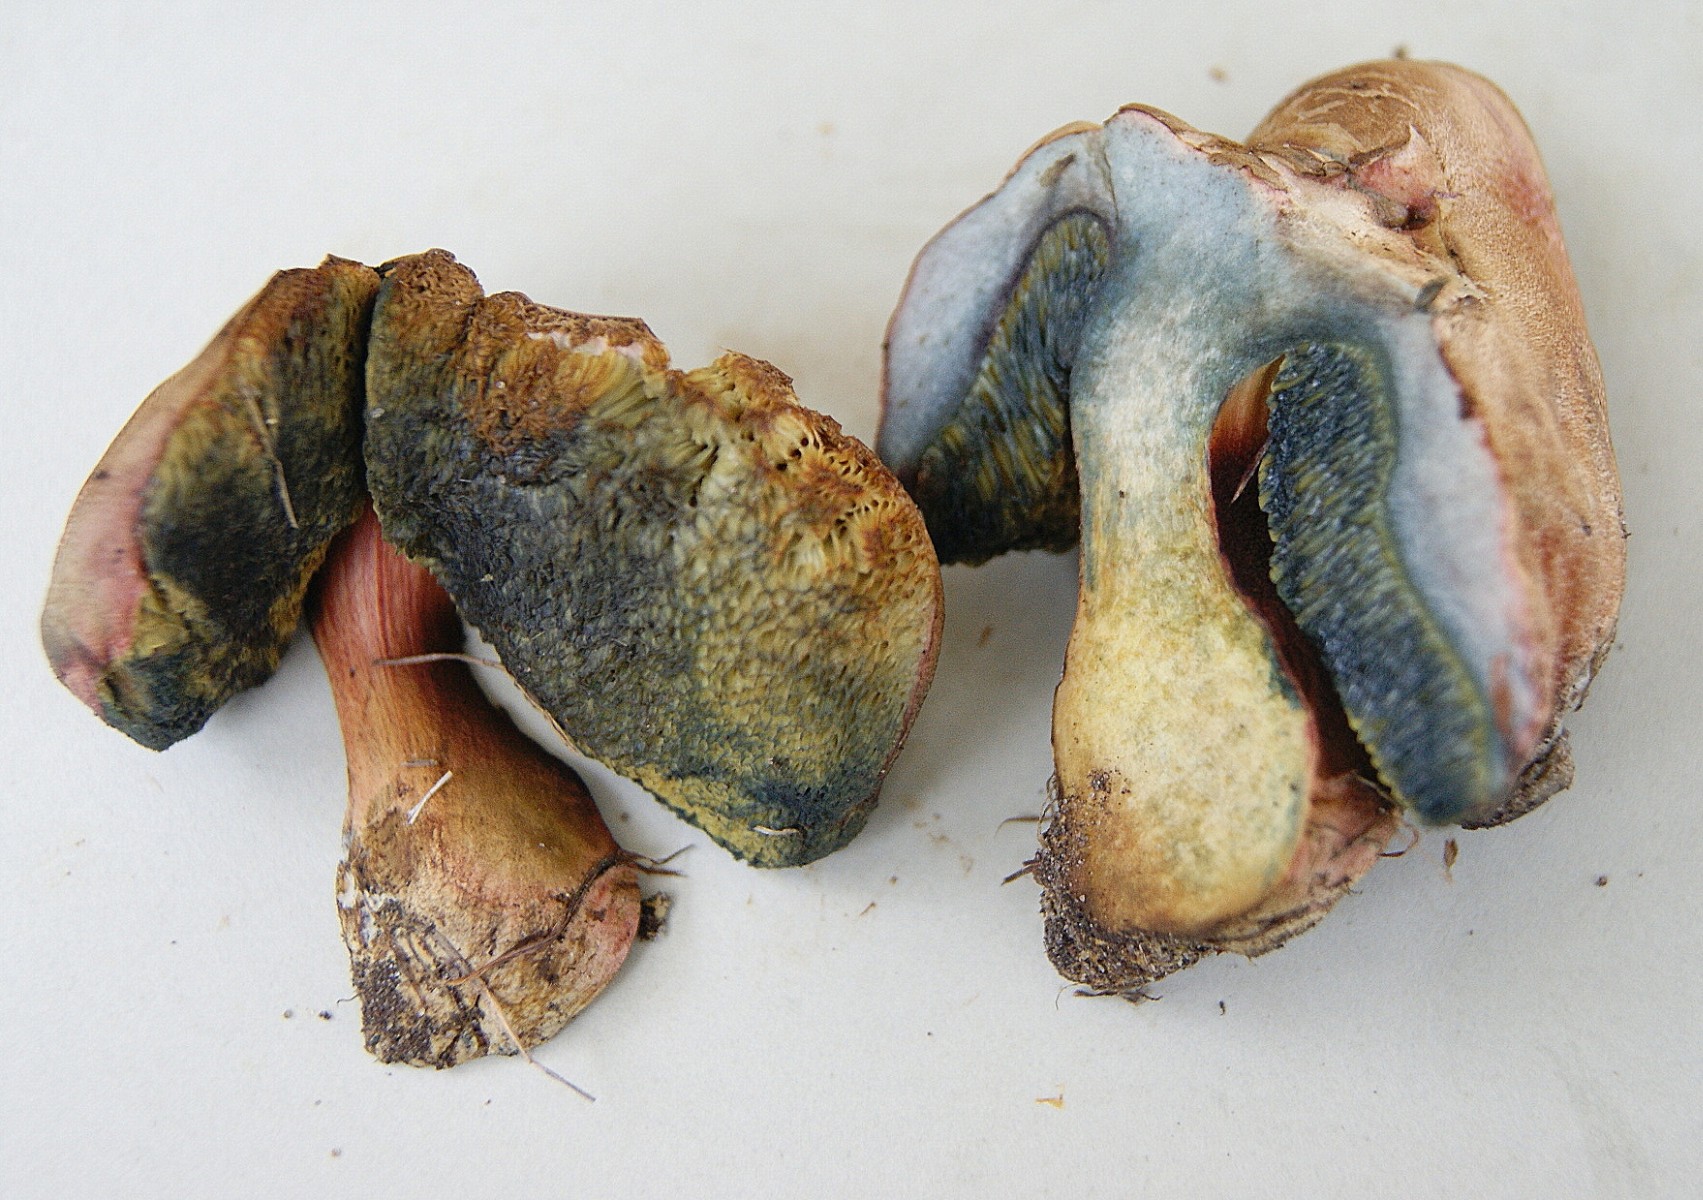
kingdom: Fungi
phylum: Basidiomycota
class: Agaricomycetes
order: Boletales
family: Boletaceae
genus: Hortiboletus
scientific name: Hortiboletus bubalinus
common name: aurora-rørhat
